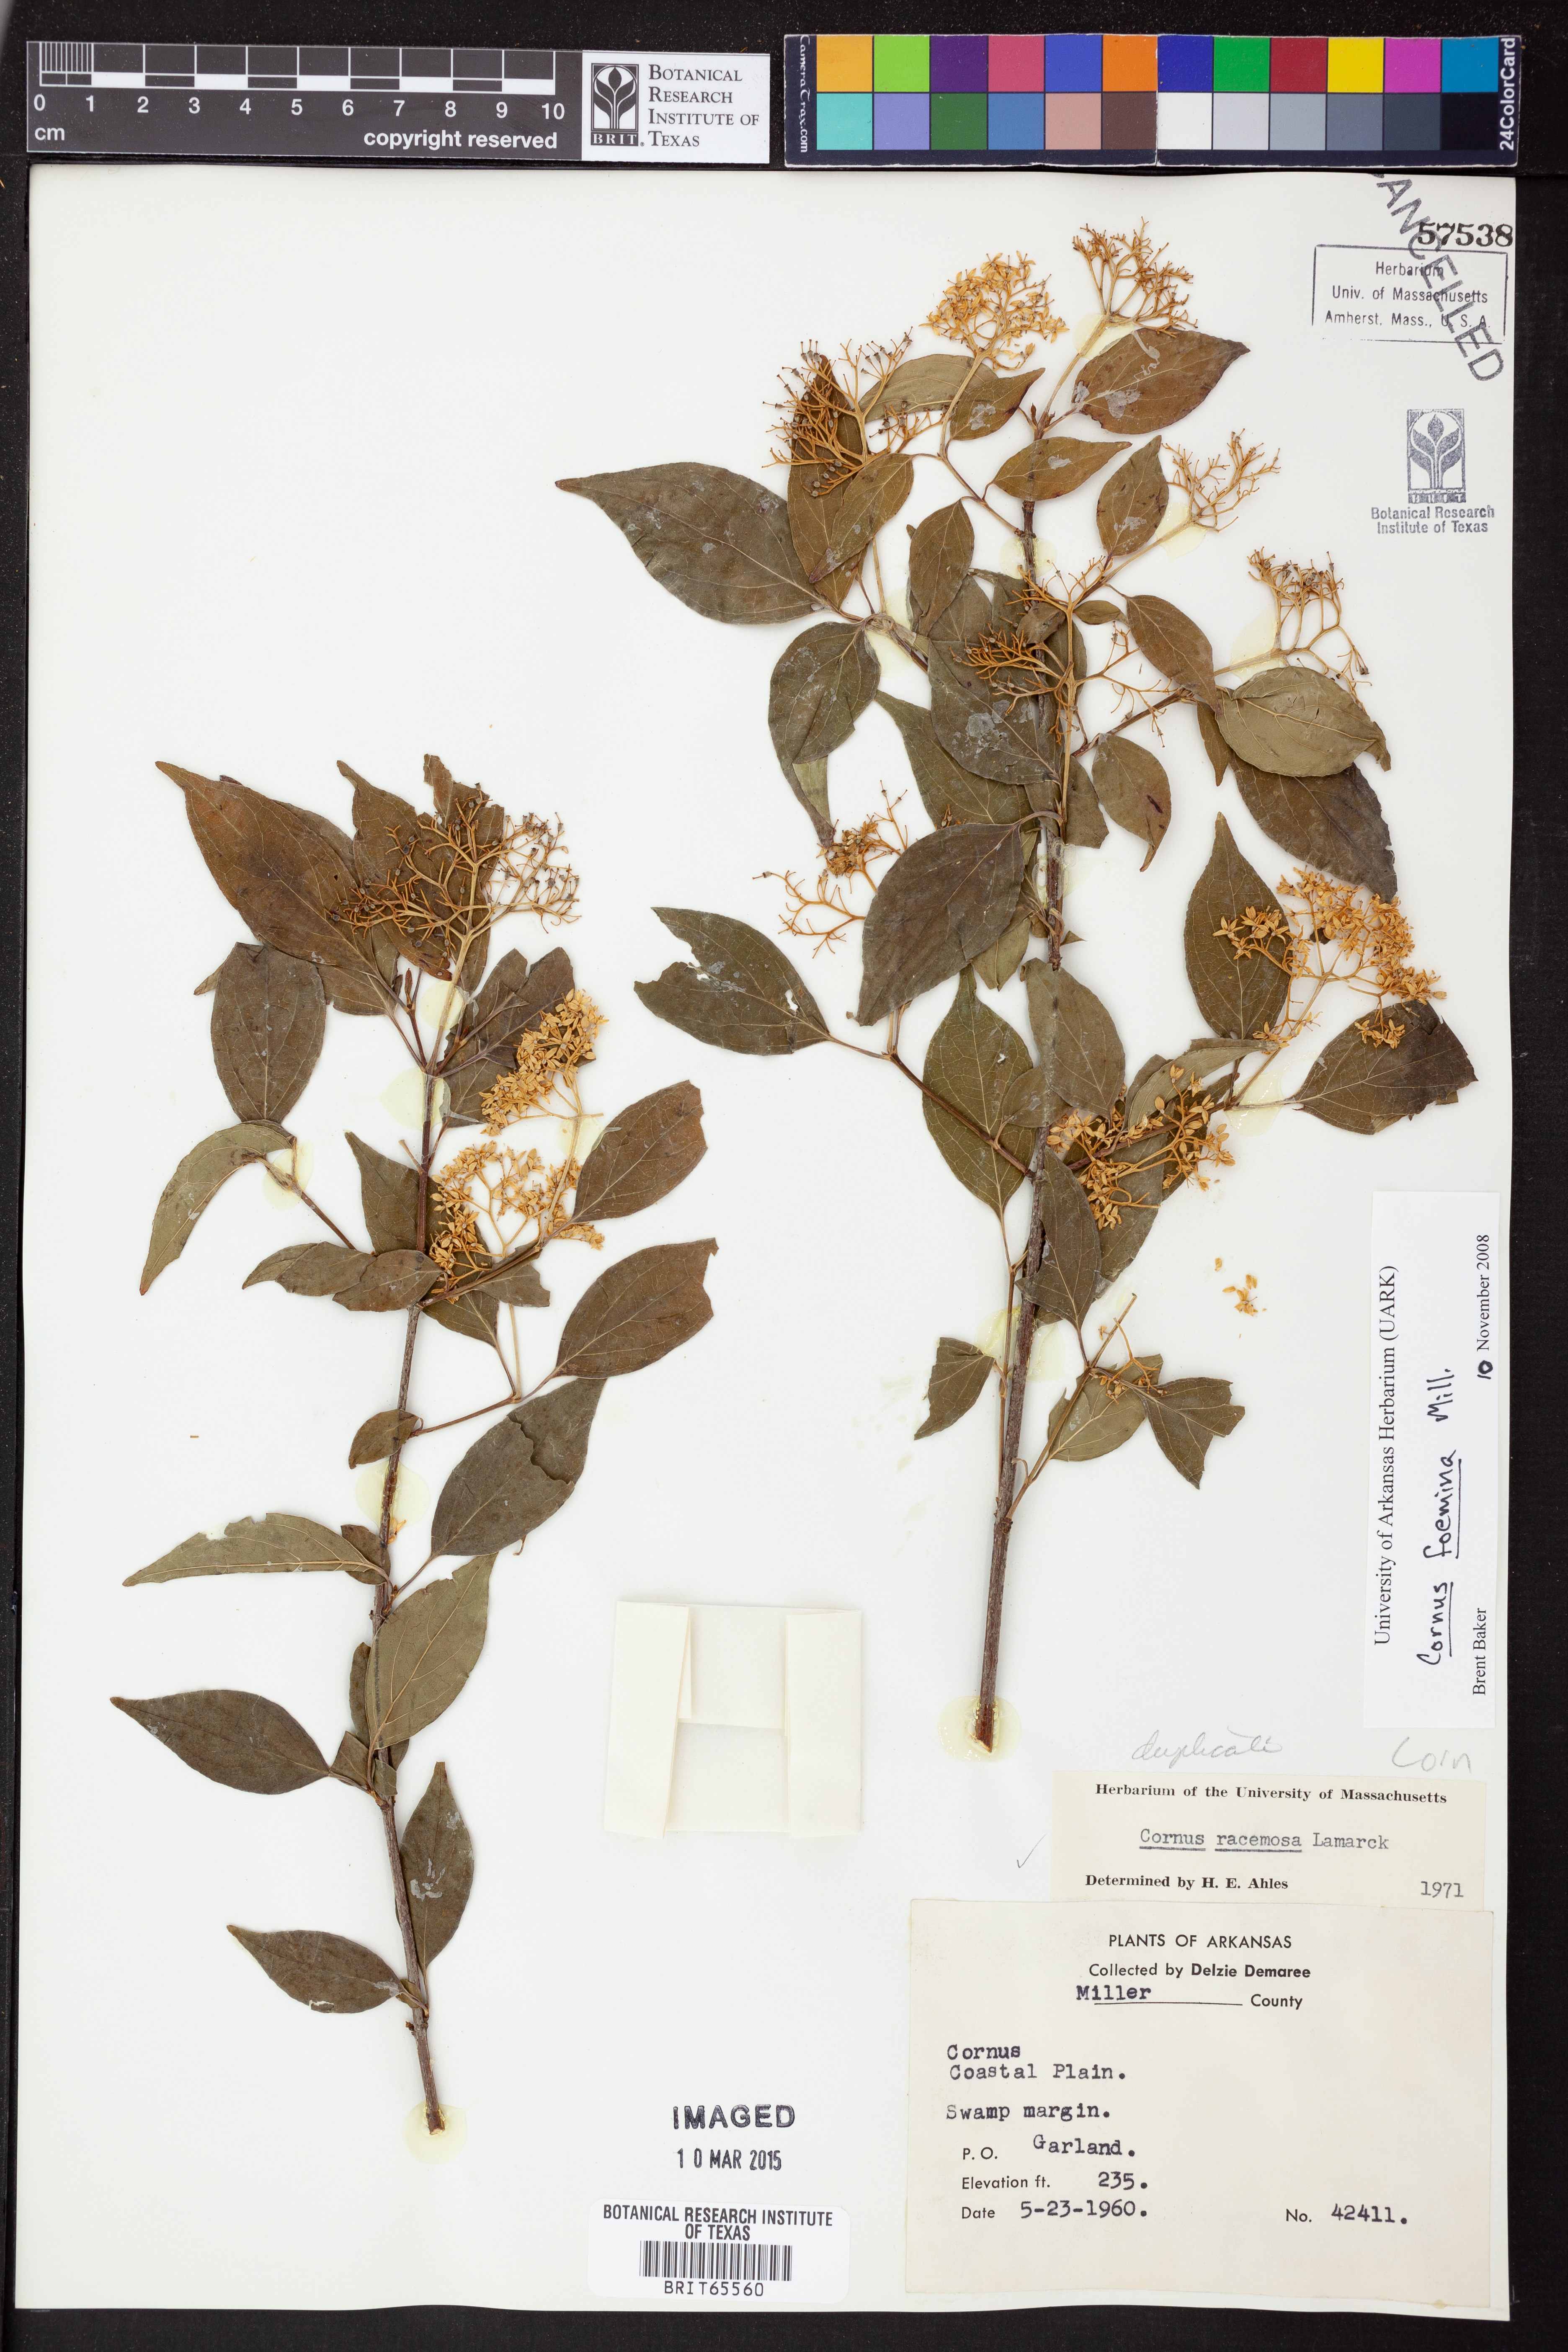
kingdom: Plantae
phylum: Tracheophyta
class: Magnoliopsida
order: Cornales
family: Cornaceae
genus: Cornus
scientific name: Cornus racemosa
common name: Panicled dogwood
